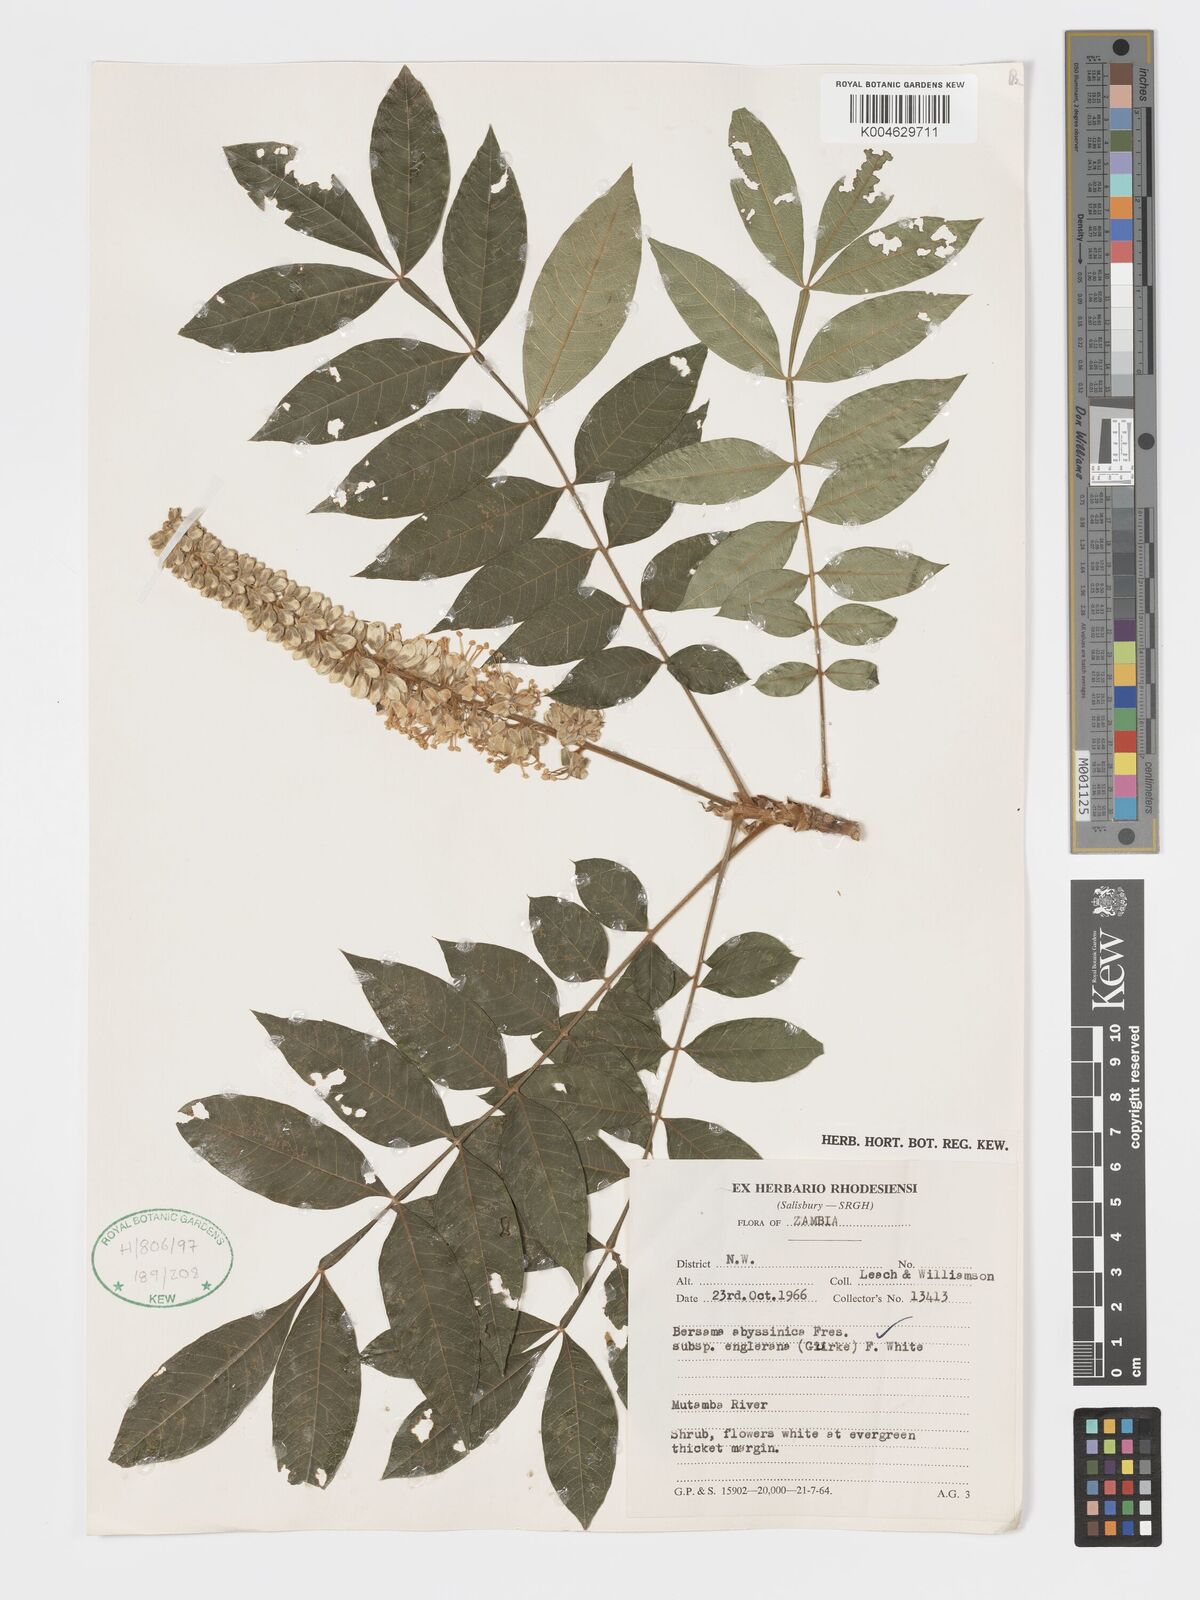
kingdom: Plantae
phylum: Tracheophyta
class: Magnoliopsida
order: Geraniales
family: Melianthaceae
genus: Bersama
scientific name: Bersama abyssinica
